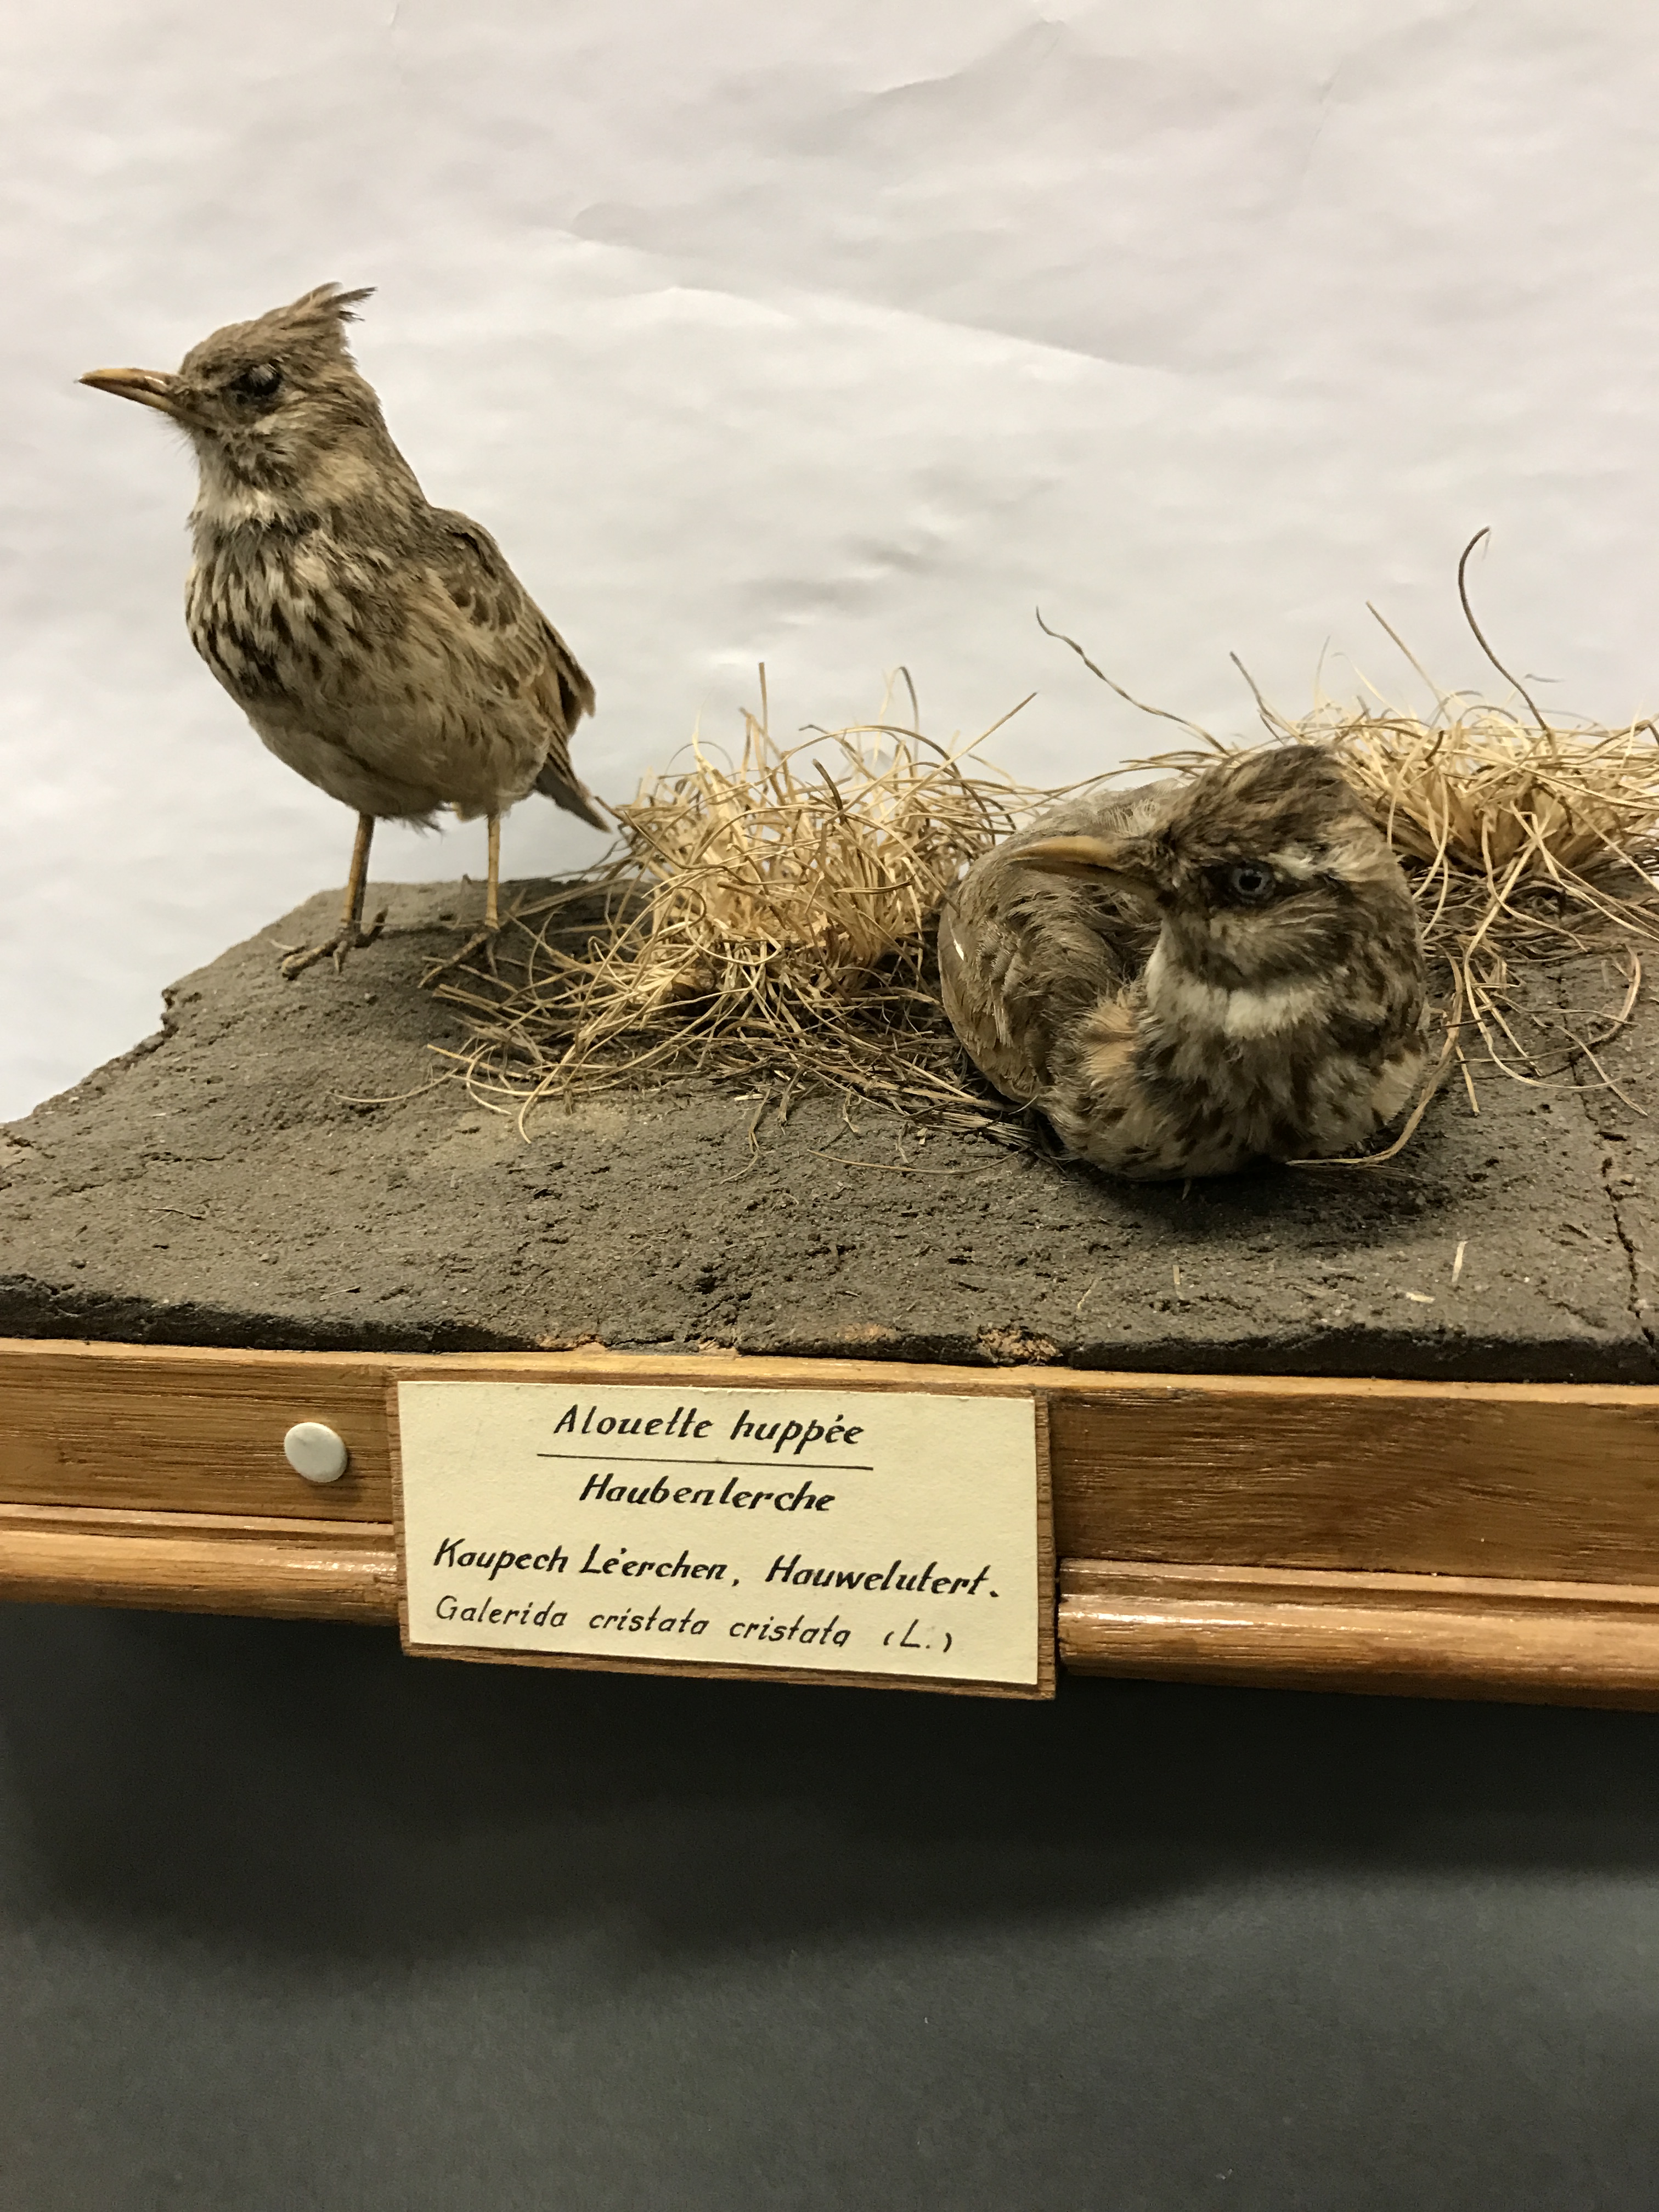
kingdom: Animalia
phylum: Chordata
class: Aves
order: Passeriformes
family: Alaudidae
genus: Galerida
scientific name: Galerida cristata
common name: Crested lark
